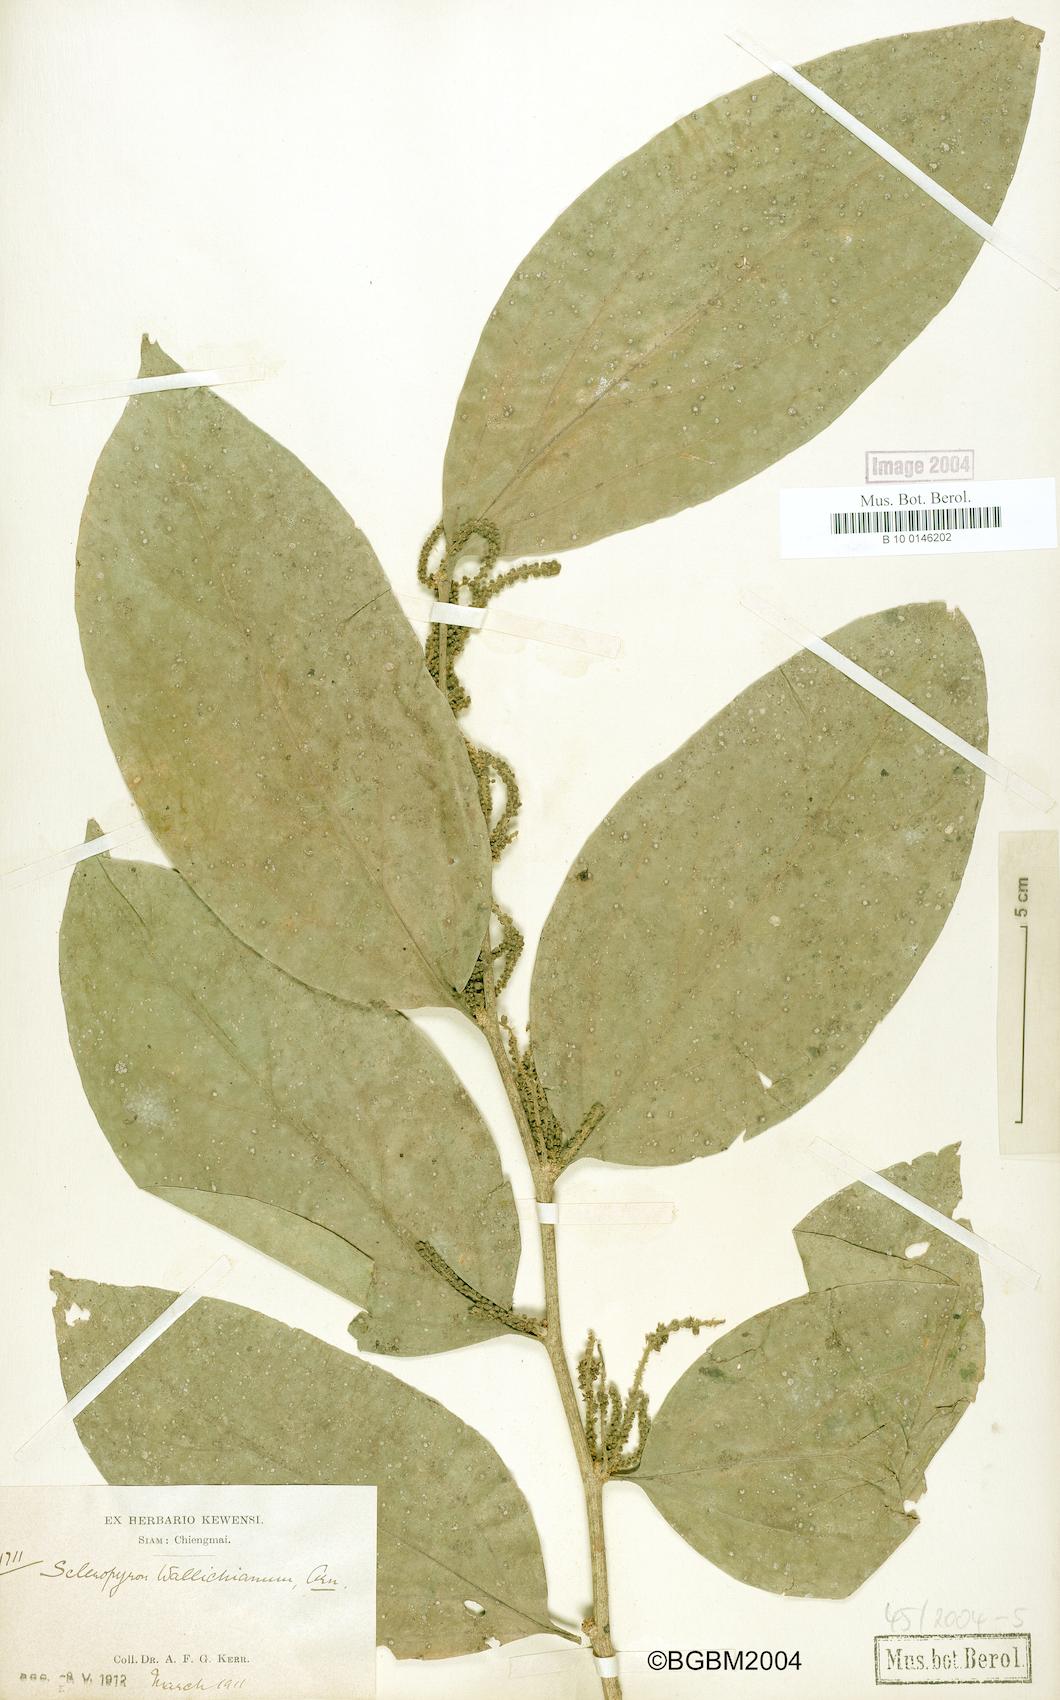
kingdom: Plantae
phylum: Tracheophyta
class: Magnoliopsida
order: Santalales
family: Cervantesiaceae
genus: Scleropyrum
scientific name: Scleropyrum pentandrum
